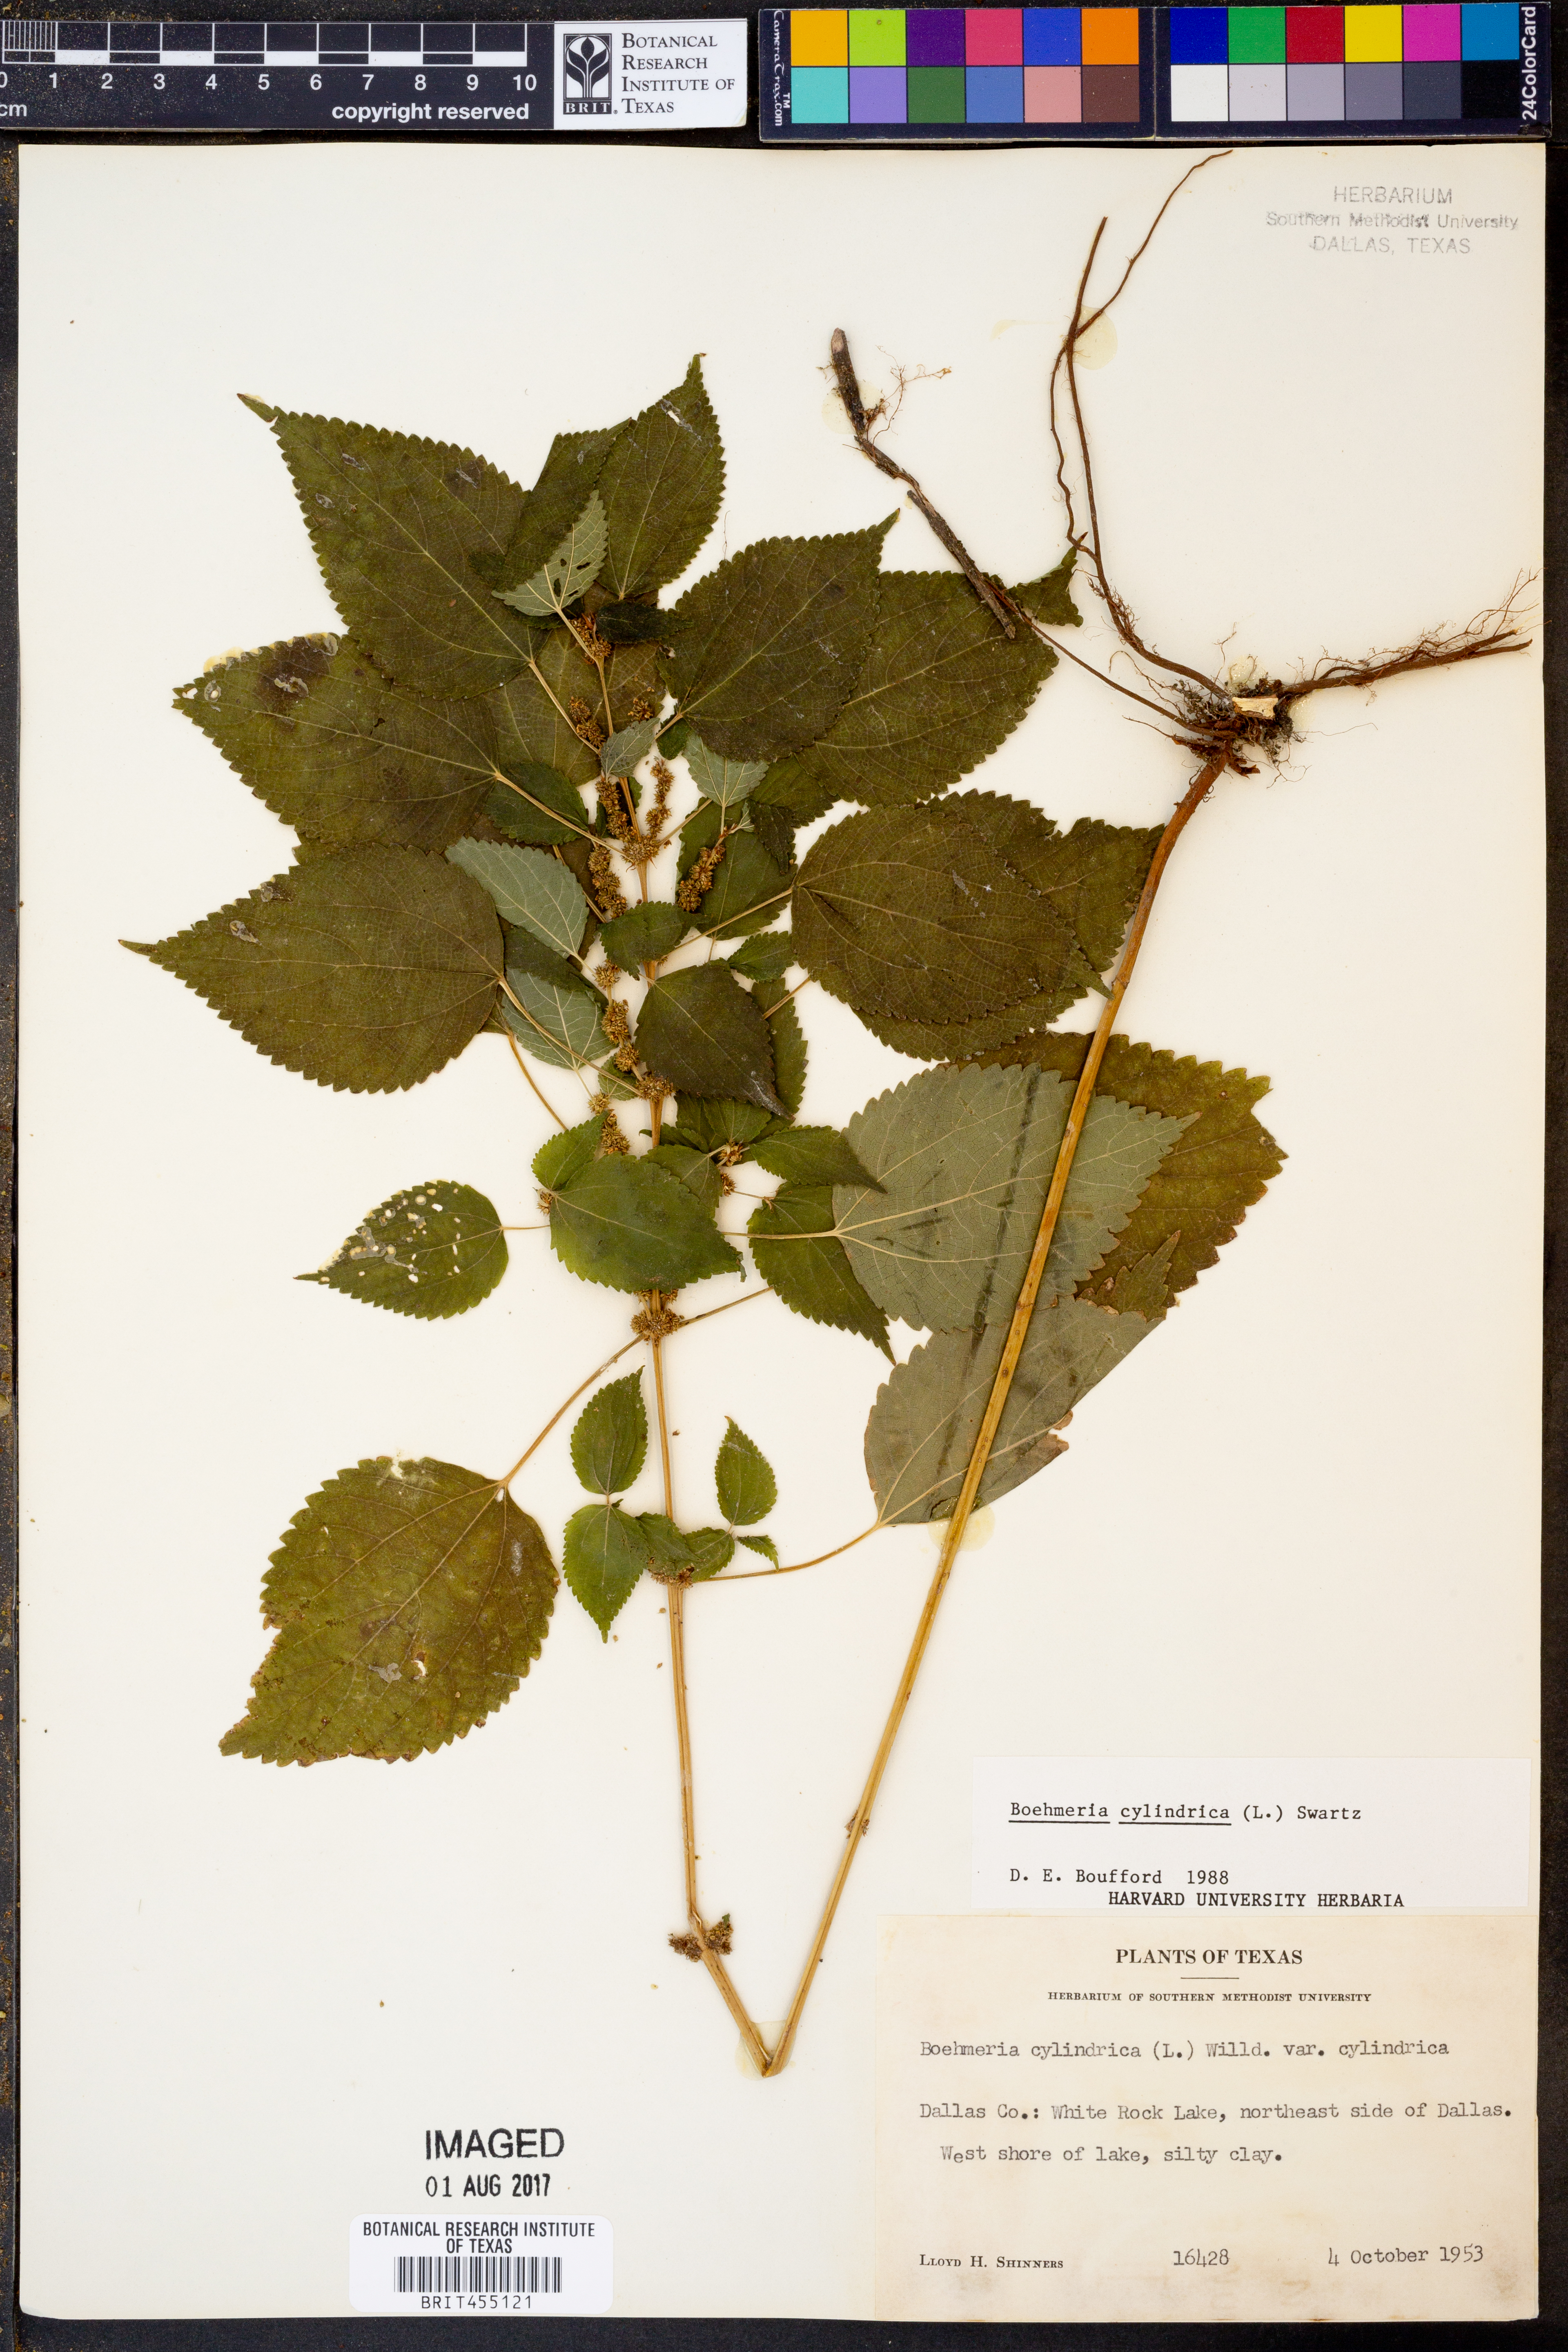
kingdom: Plantae
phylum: Tracheophyta
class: Magnoliopsida
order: Rosales
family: Urticaceae
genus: Boehmeria
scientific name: Boehmeria cylindrica
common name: Bog-hemp
